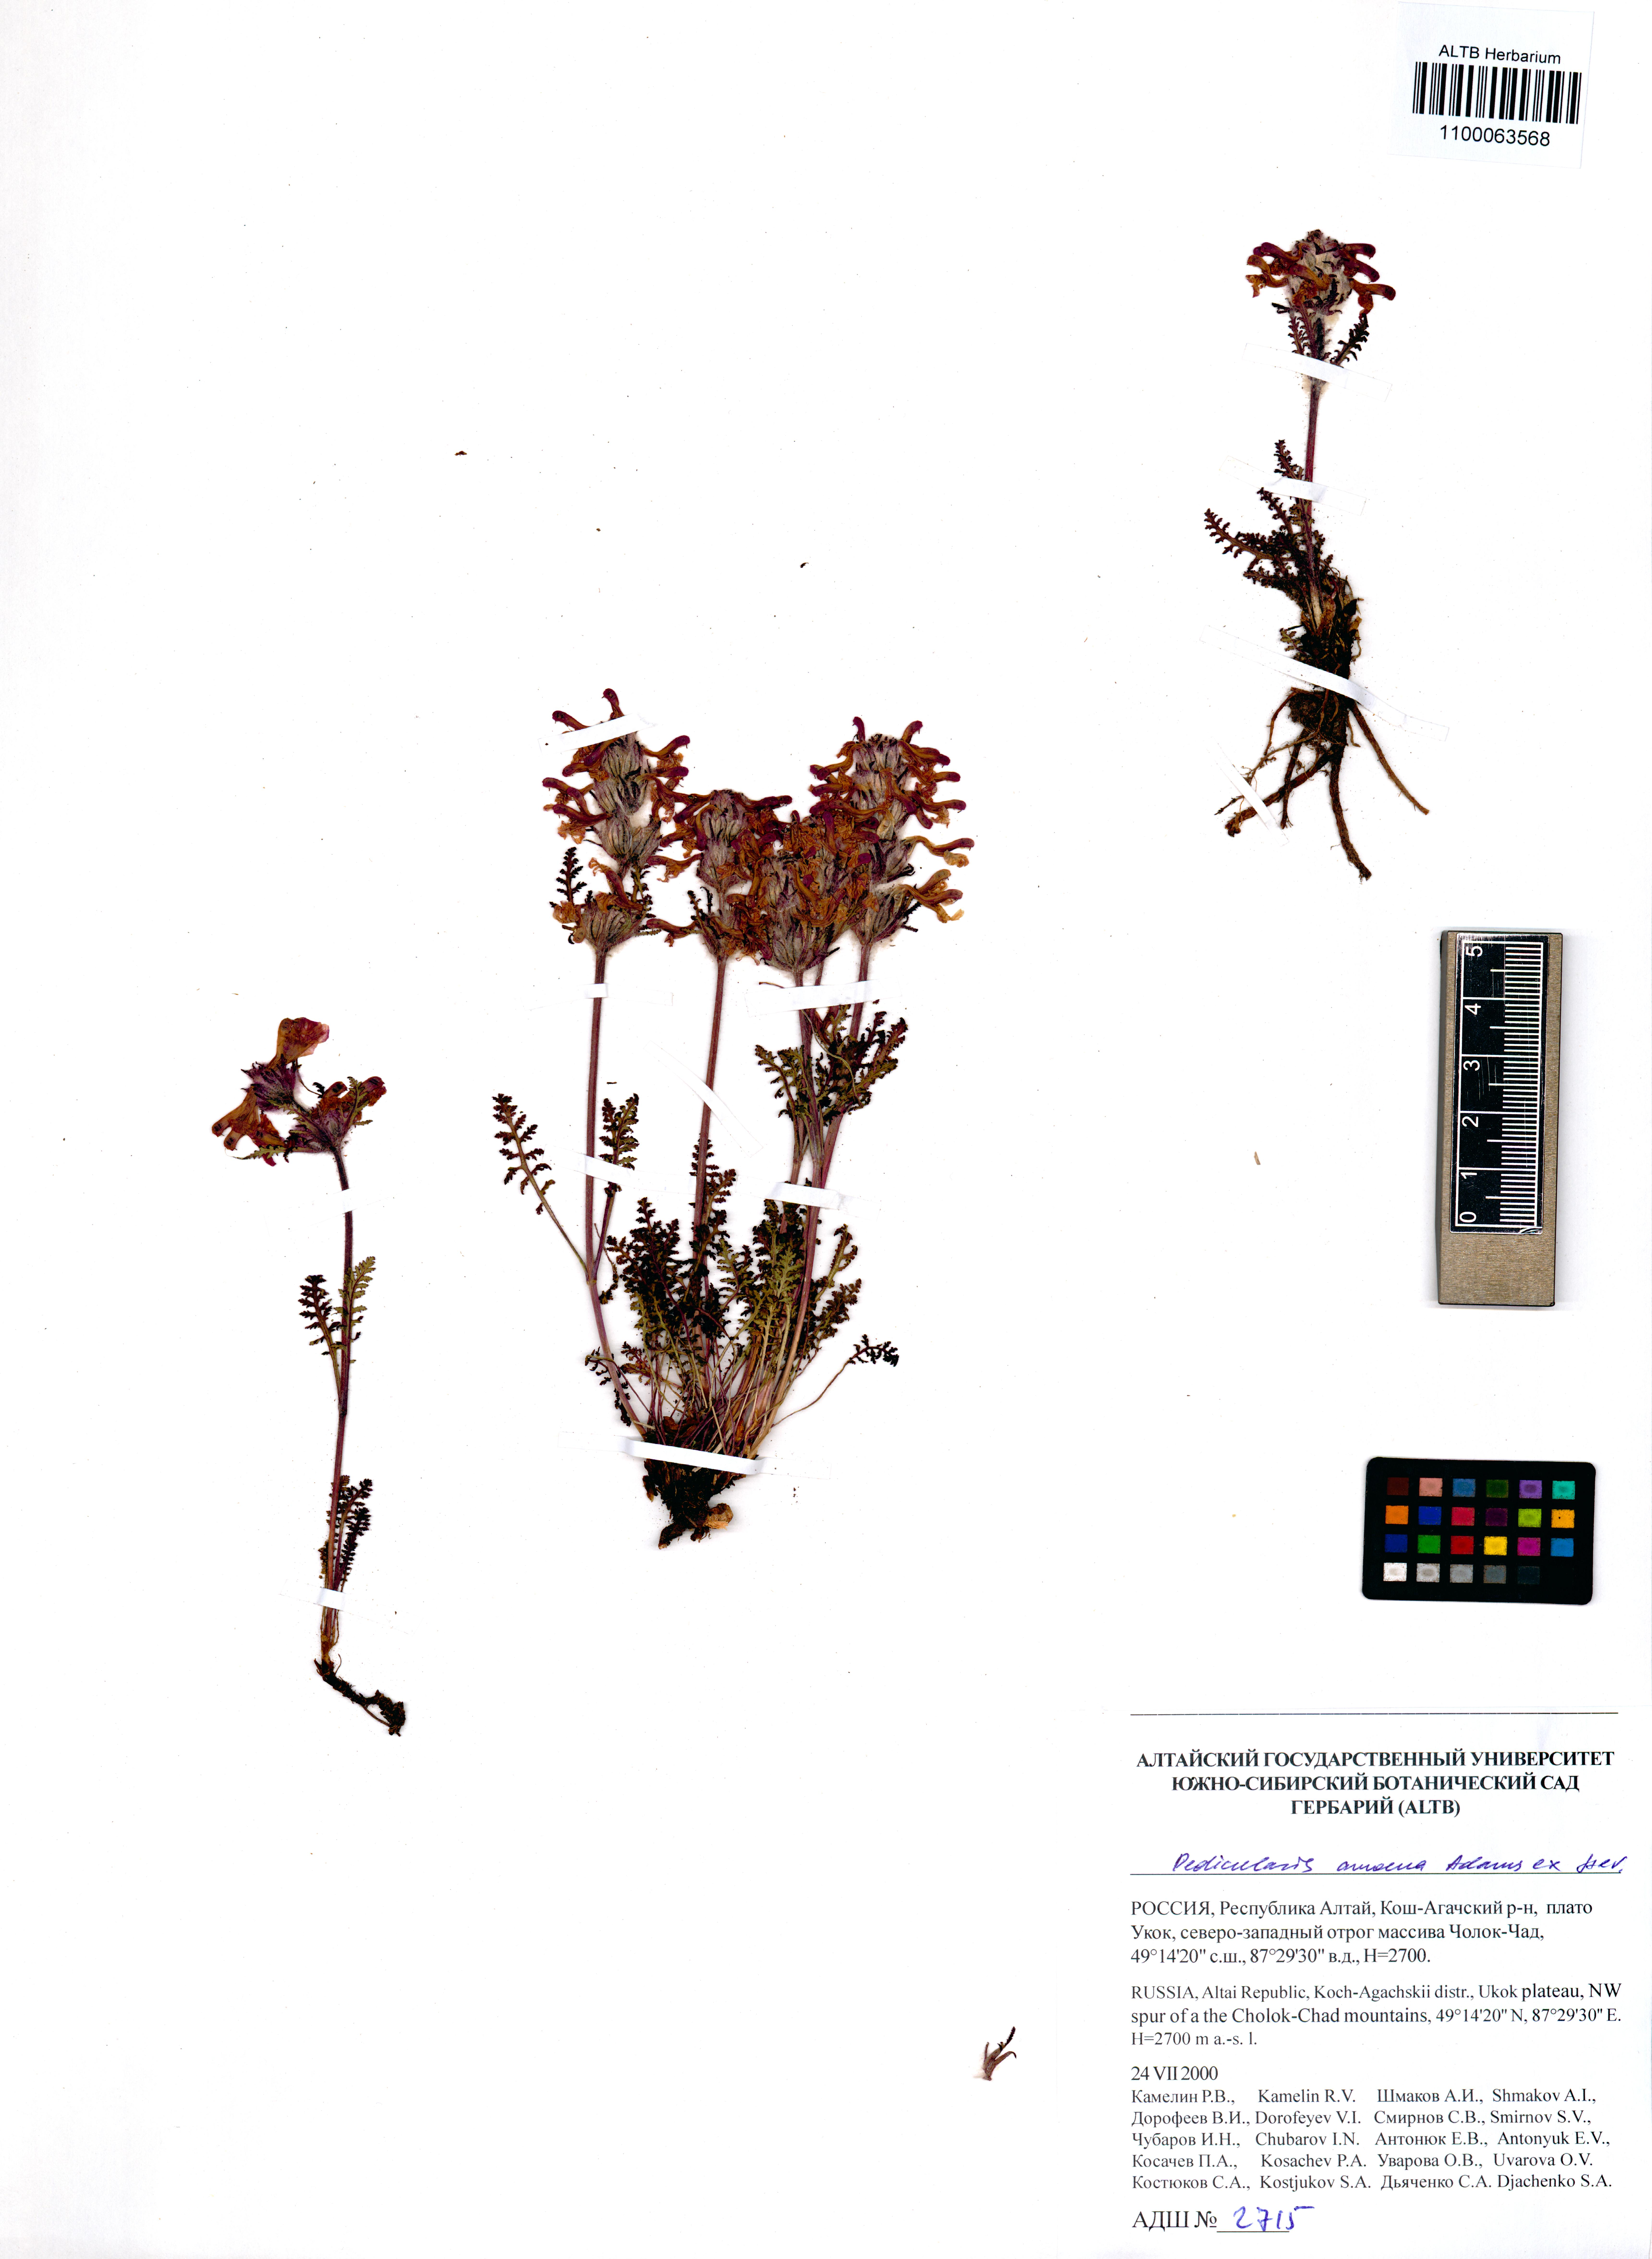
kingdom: Plantae
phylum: Tracheophyta
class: Magnoliopsida
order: Lamiales
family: Orobanchaceae
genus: Pedicularis
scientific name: Pedicularis amoena
